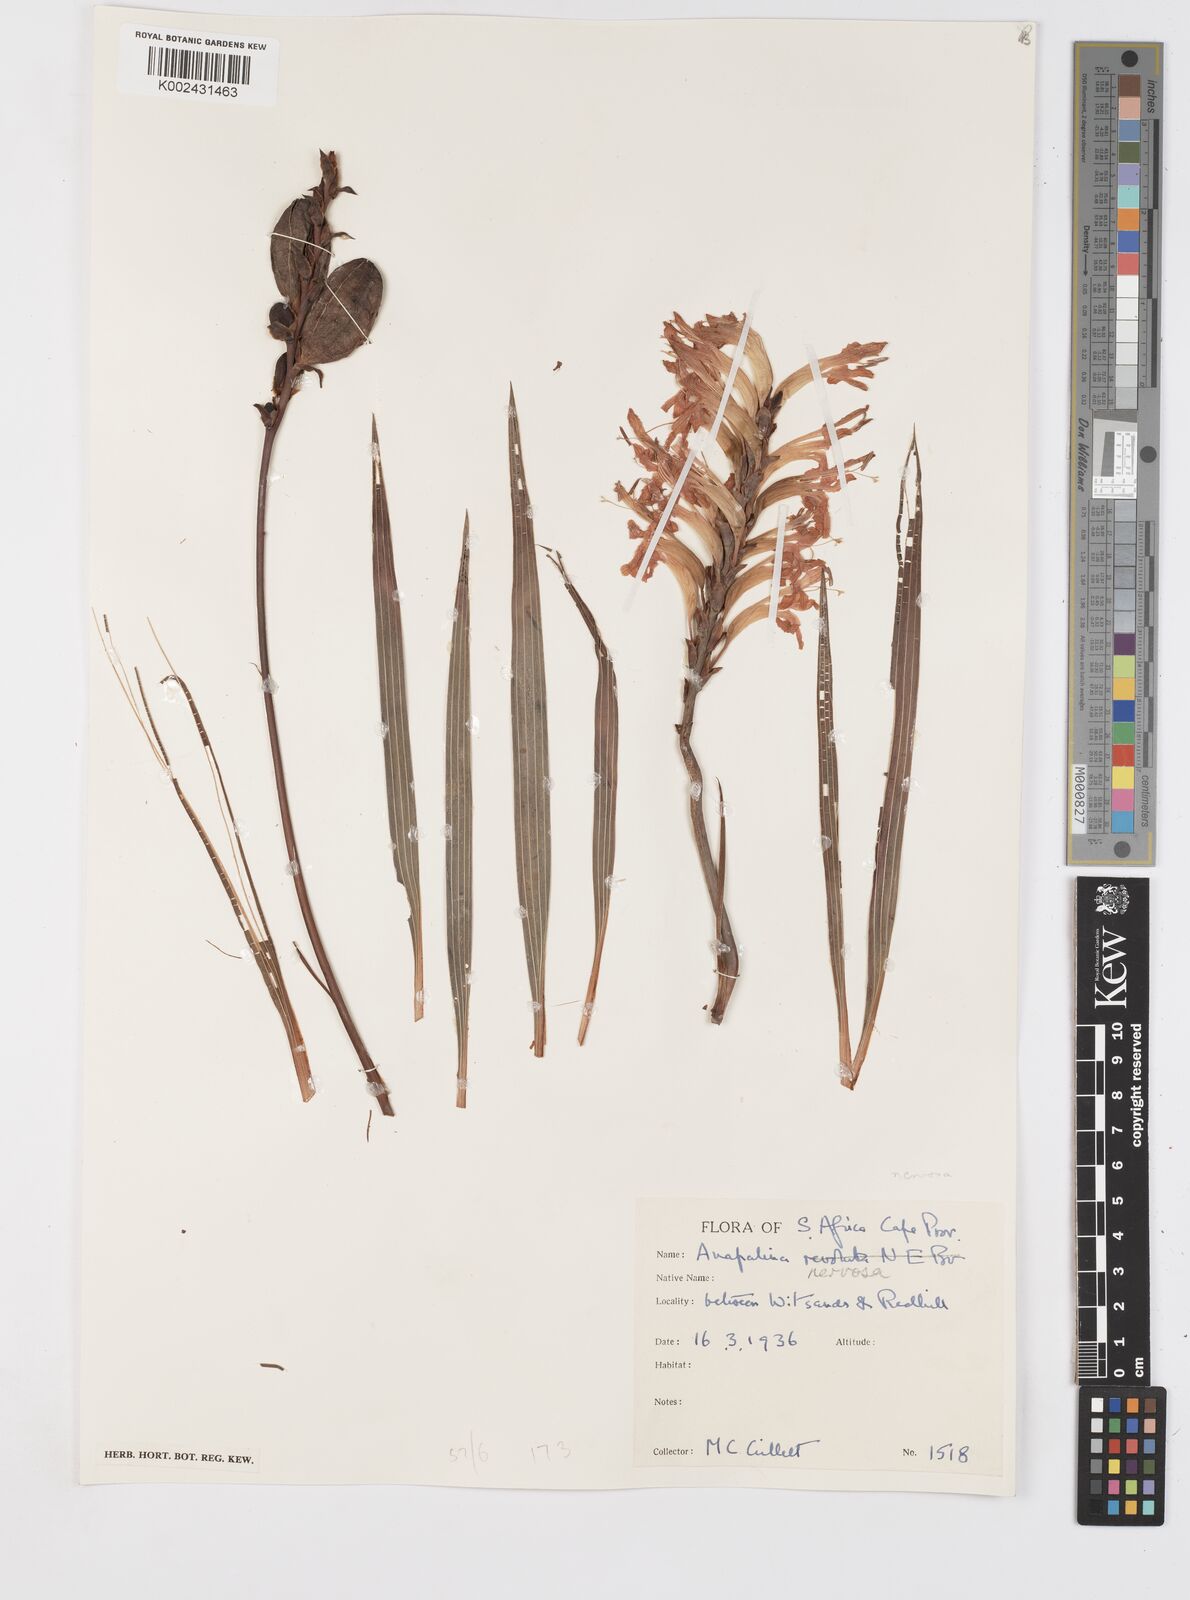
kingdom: Plantae
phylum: Tracheophyta
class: Liliopsida
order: Asparagales
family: Iridaceae
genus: Tritoniopsis
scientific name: Tritoniopsis nervosa
